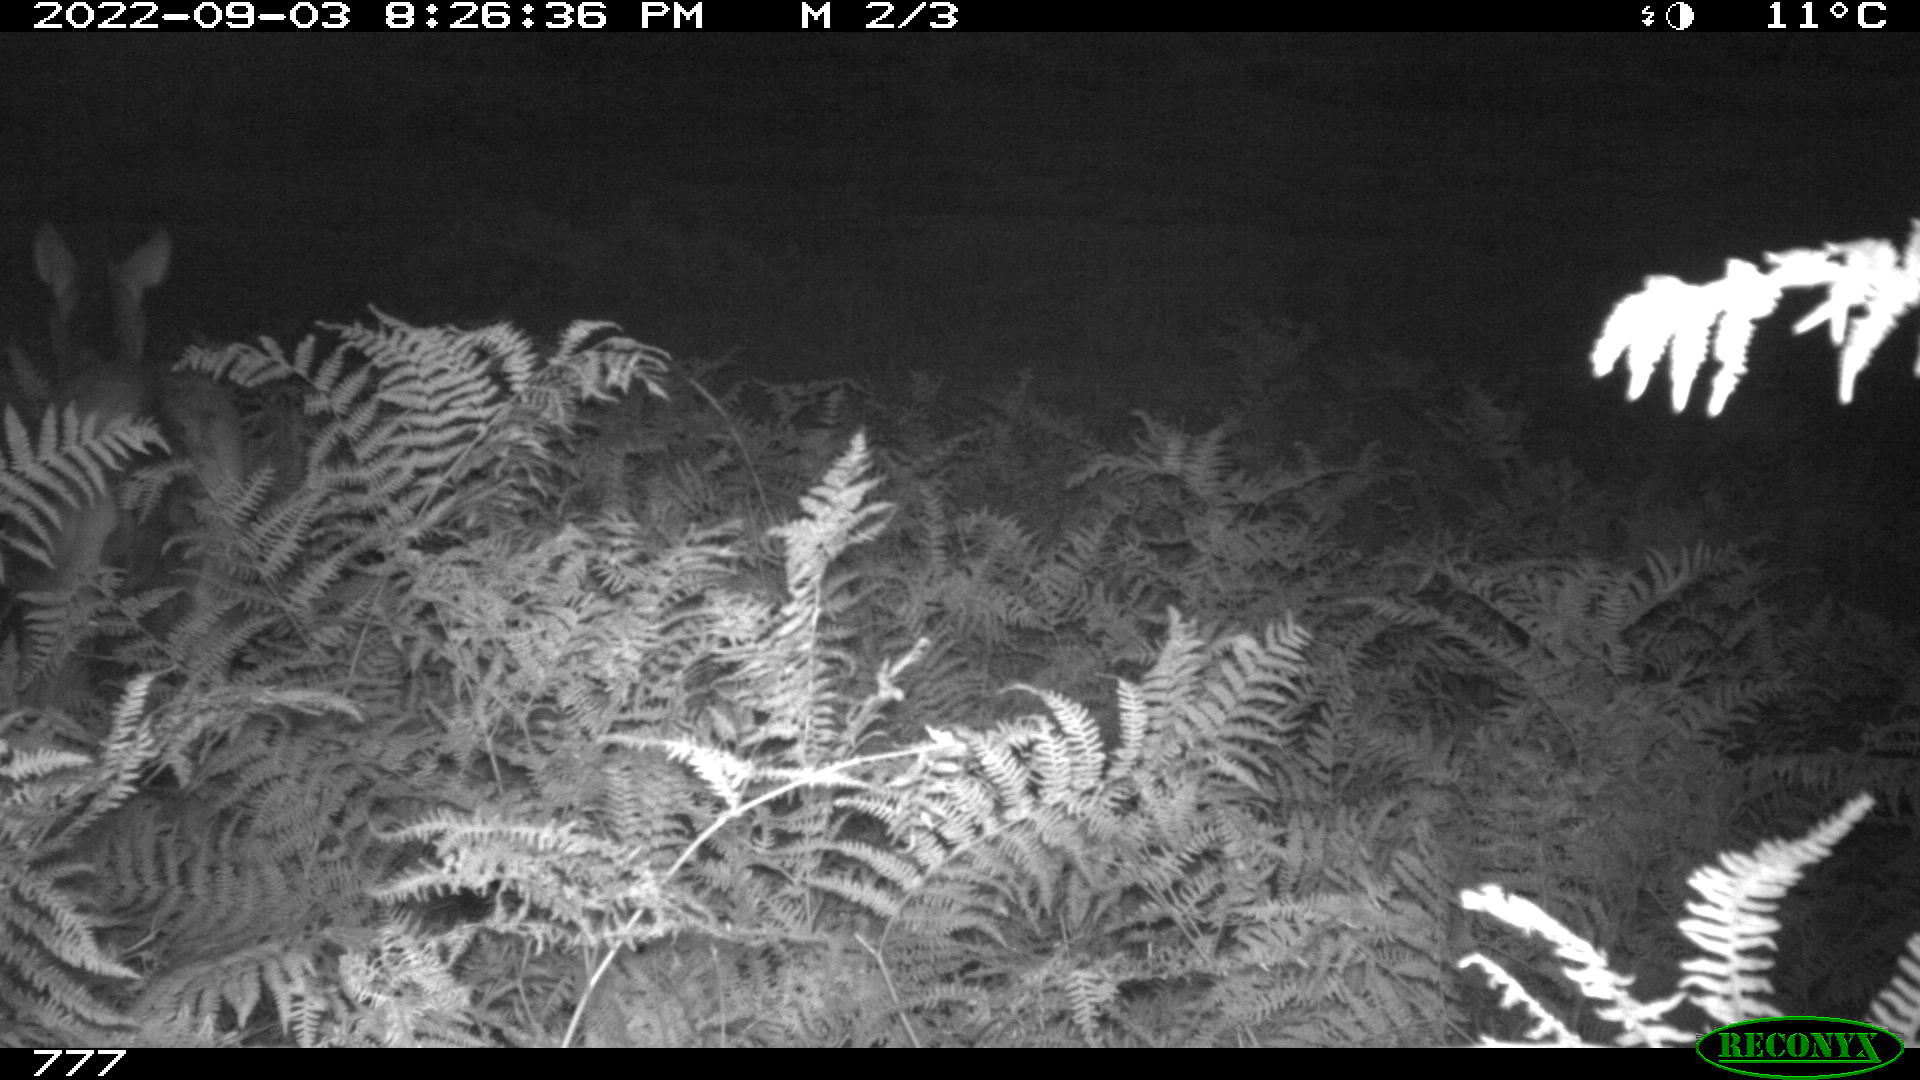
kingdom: Animalia
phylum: Chordata
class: Mammalia
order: Perissodactyla
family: Equidae
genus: Equus
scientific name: Equus caballus
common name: Horse
